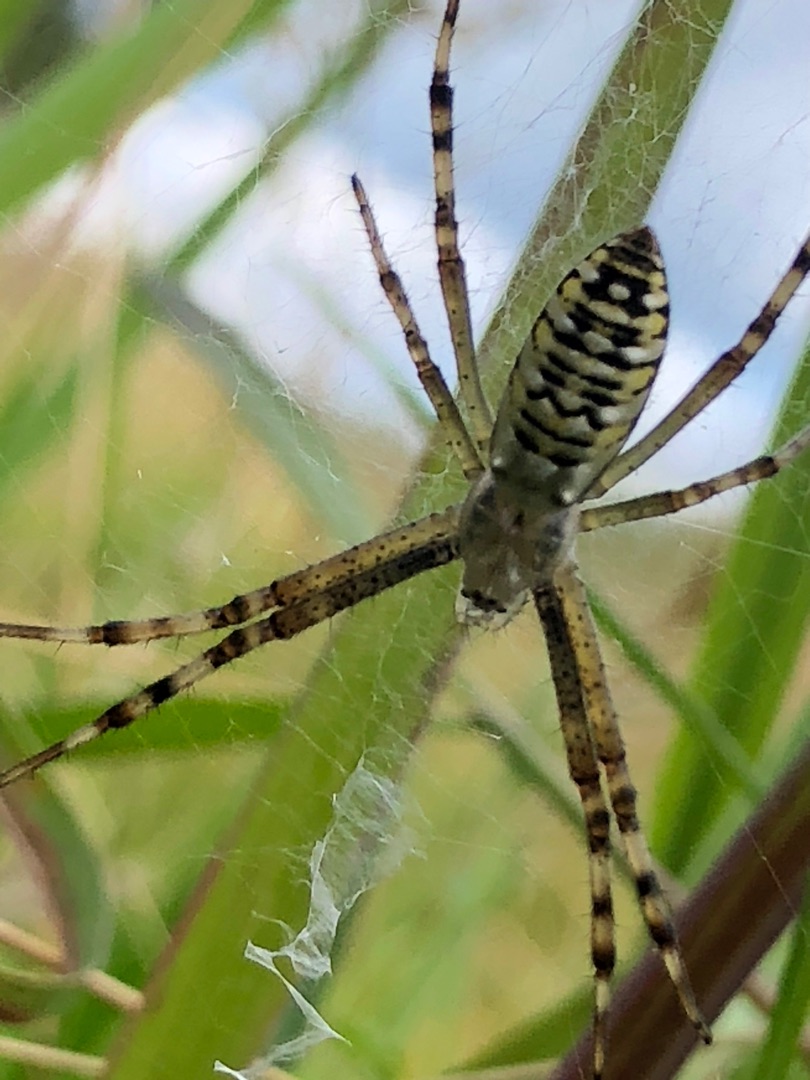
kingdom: Animalia
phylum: Arthropoda
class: Arachnida
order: Araneae
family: Araneidae
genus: Argiope
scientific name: Argiope bruennichi
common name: Hvepseedderkop
